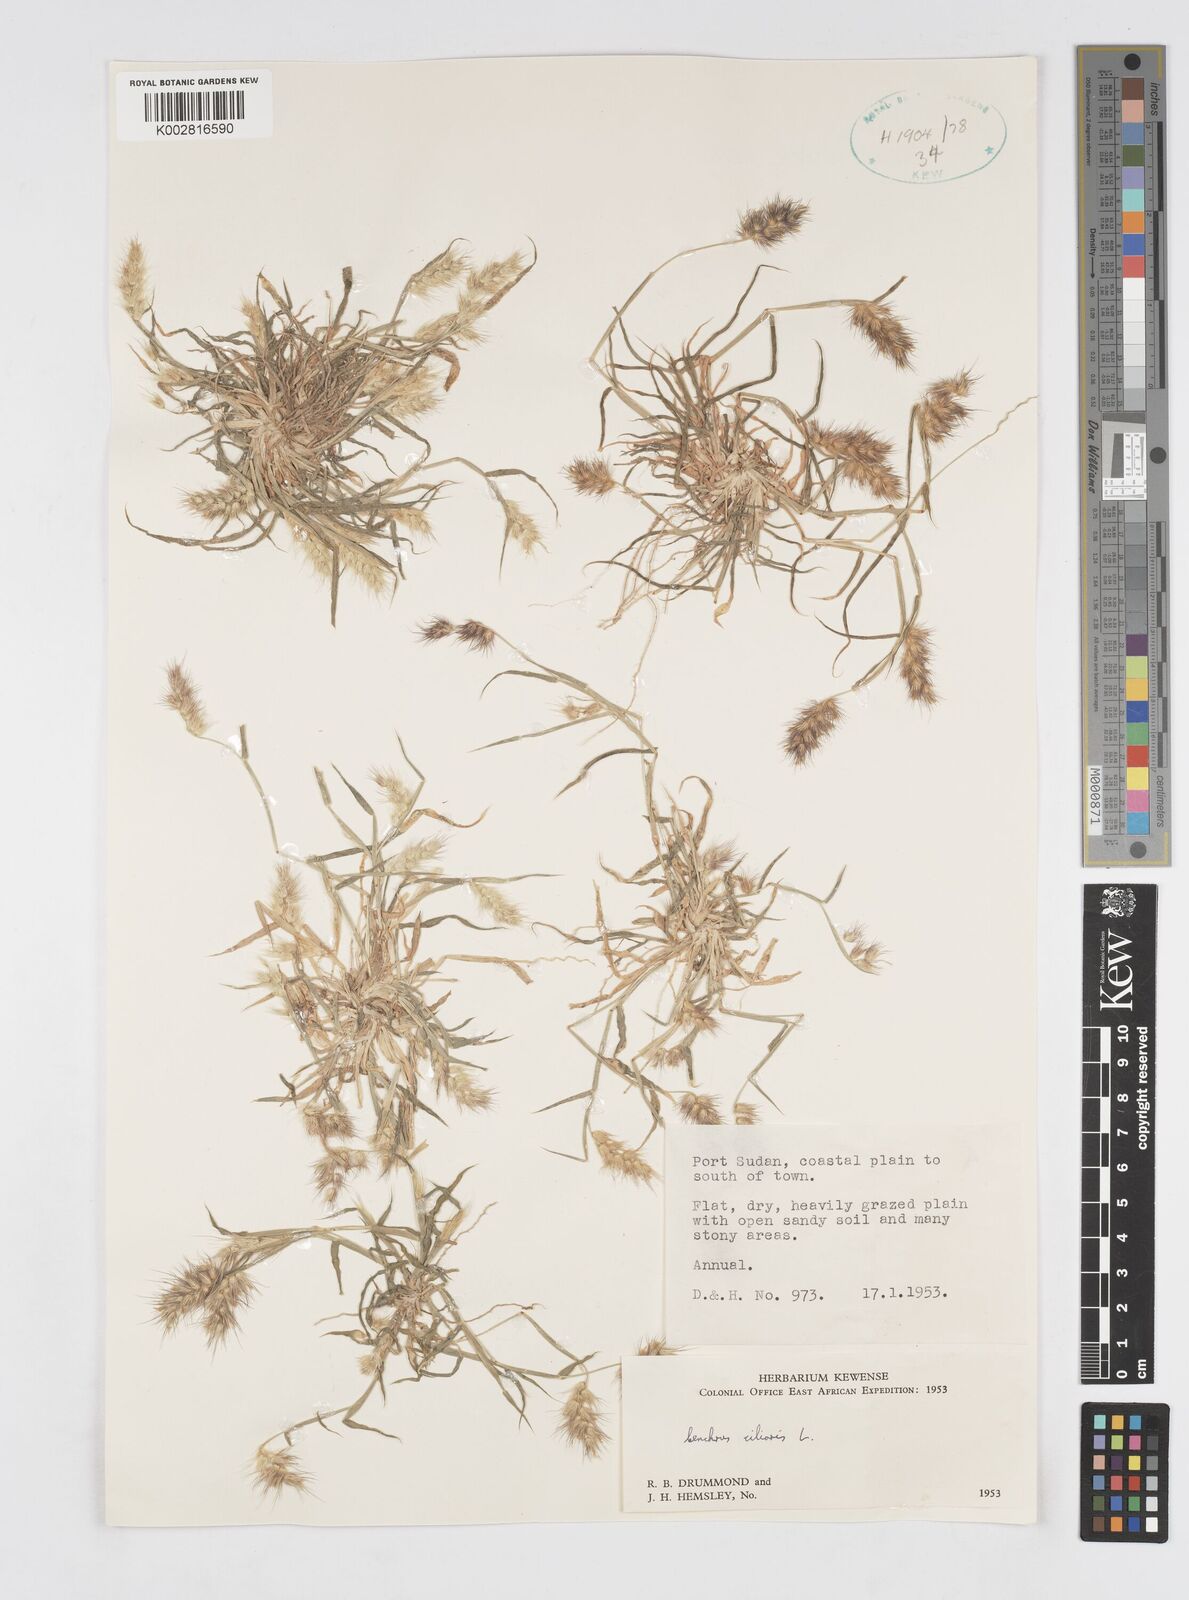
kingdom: Plantae
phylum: Tracheophyta
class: Liliopsida
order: Poales
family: Poaceae
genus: Cenchrus
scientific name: Cenchrus ciliaris
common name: Buffelgrass
